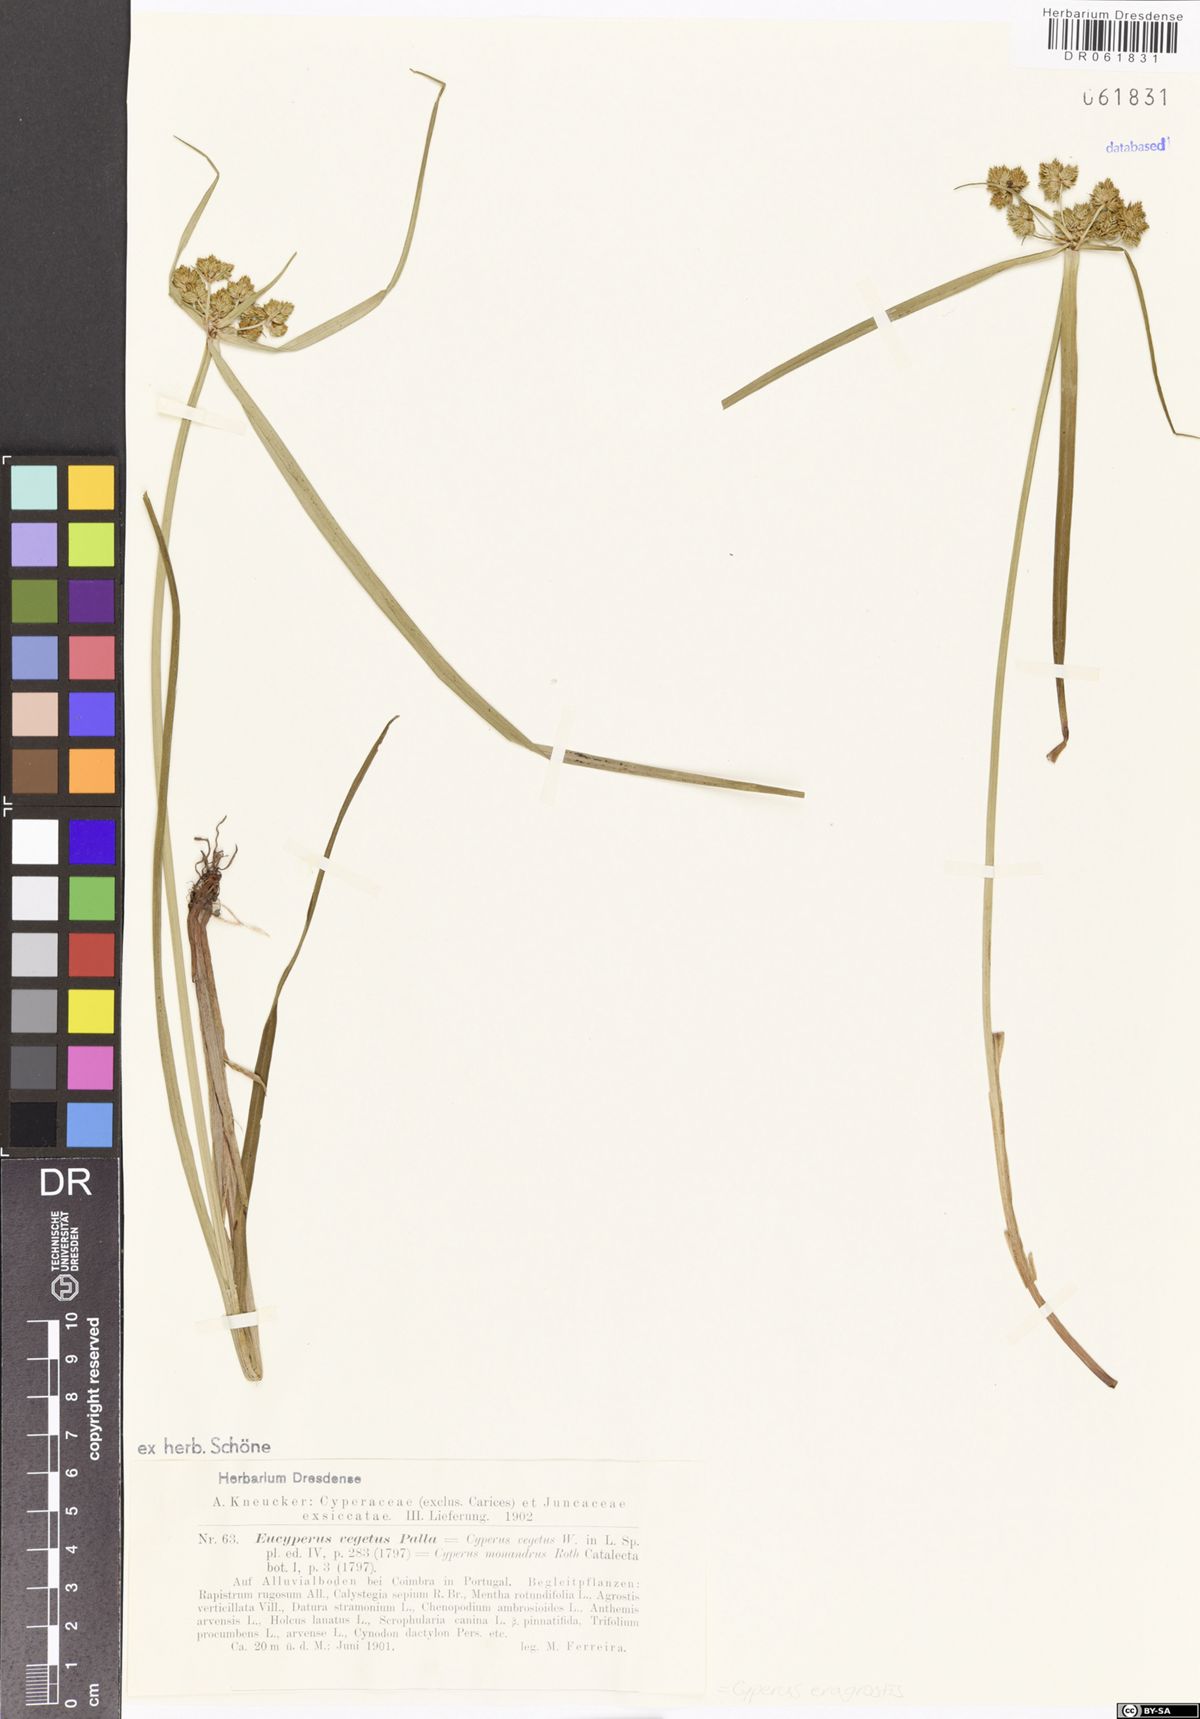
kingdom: Plantae
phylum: Tracheophyta
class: Liliopsida
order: Poales
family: Cyperaceae
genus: Cyperus
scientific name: Cyperus eragrostis
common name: Tall flatsedge
